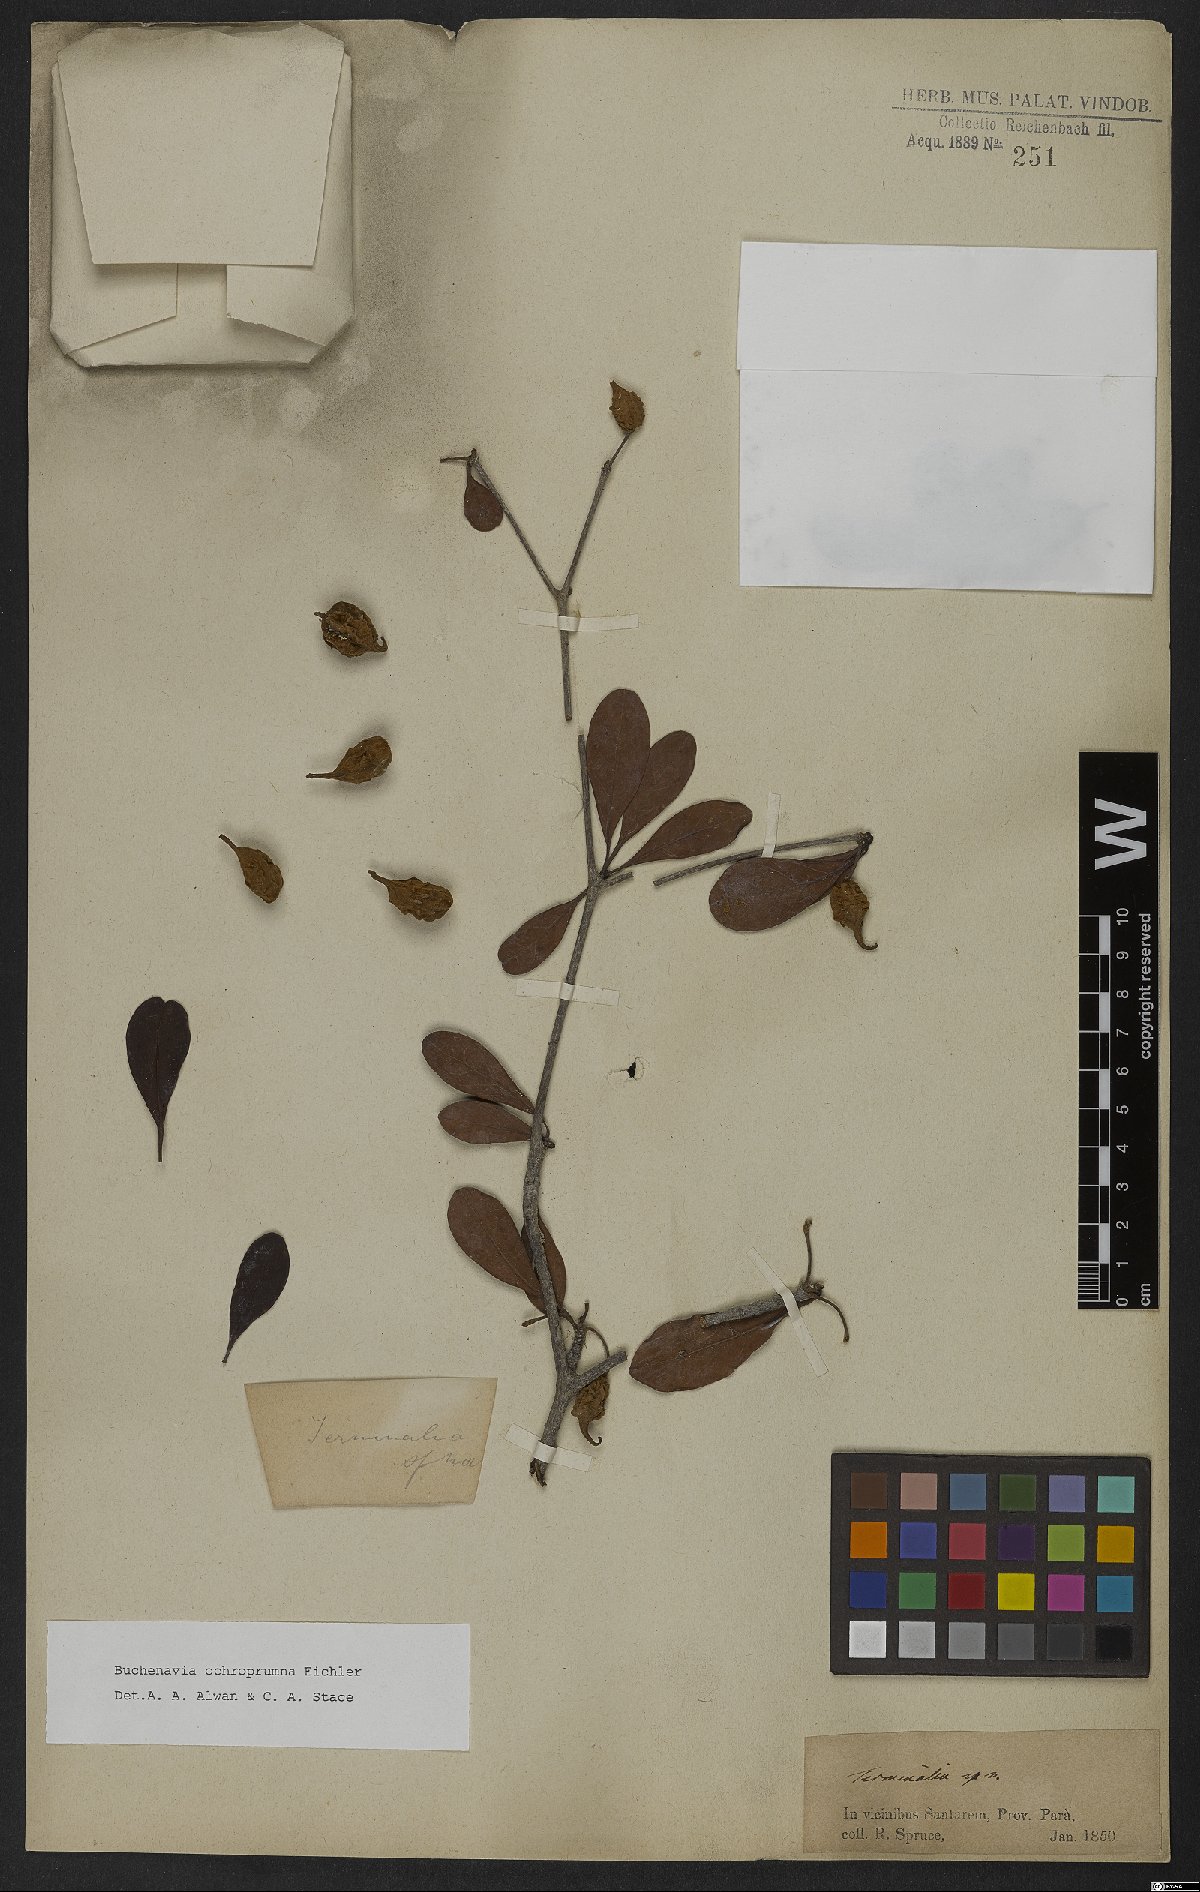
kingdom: Plantae
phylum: Tracheophyta
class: Magnoliopsida
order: Myrtales
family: Combretaceae
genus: Terminalia
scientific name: Terminalia ochroprumna
